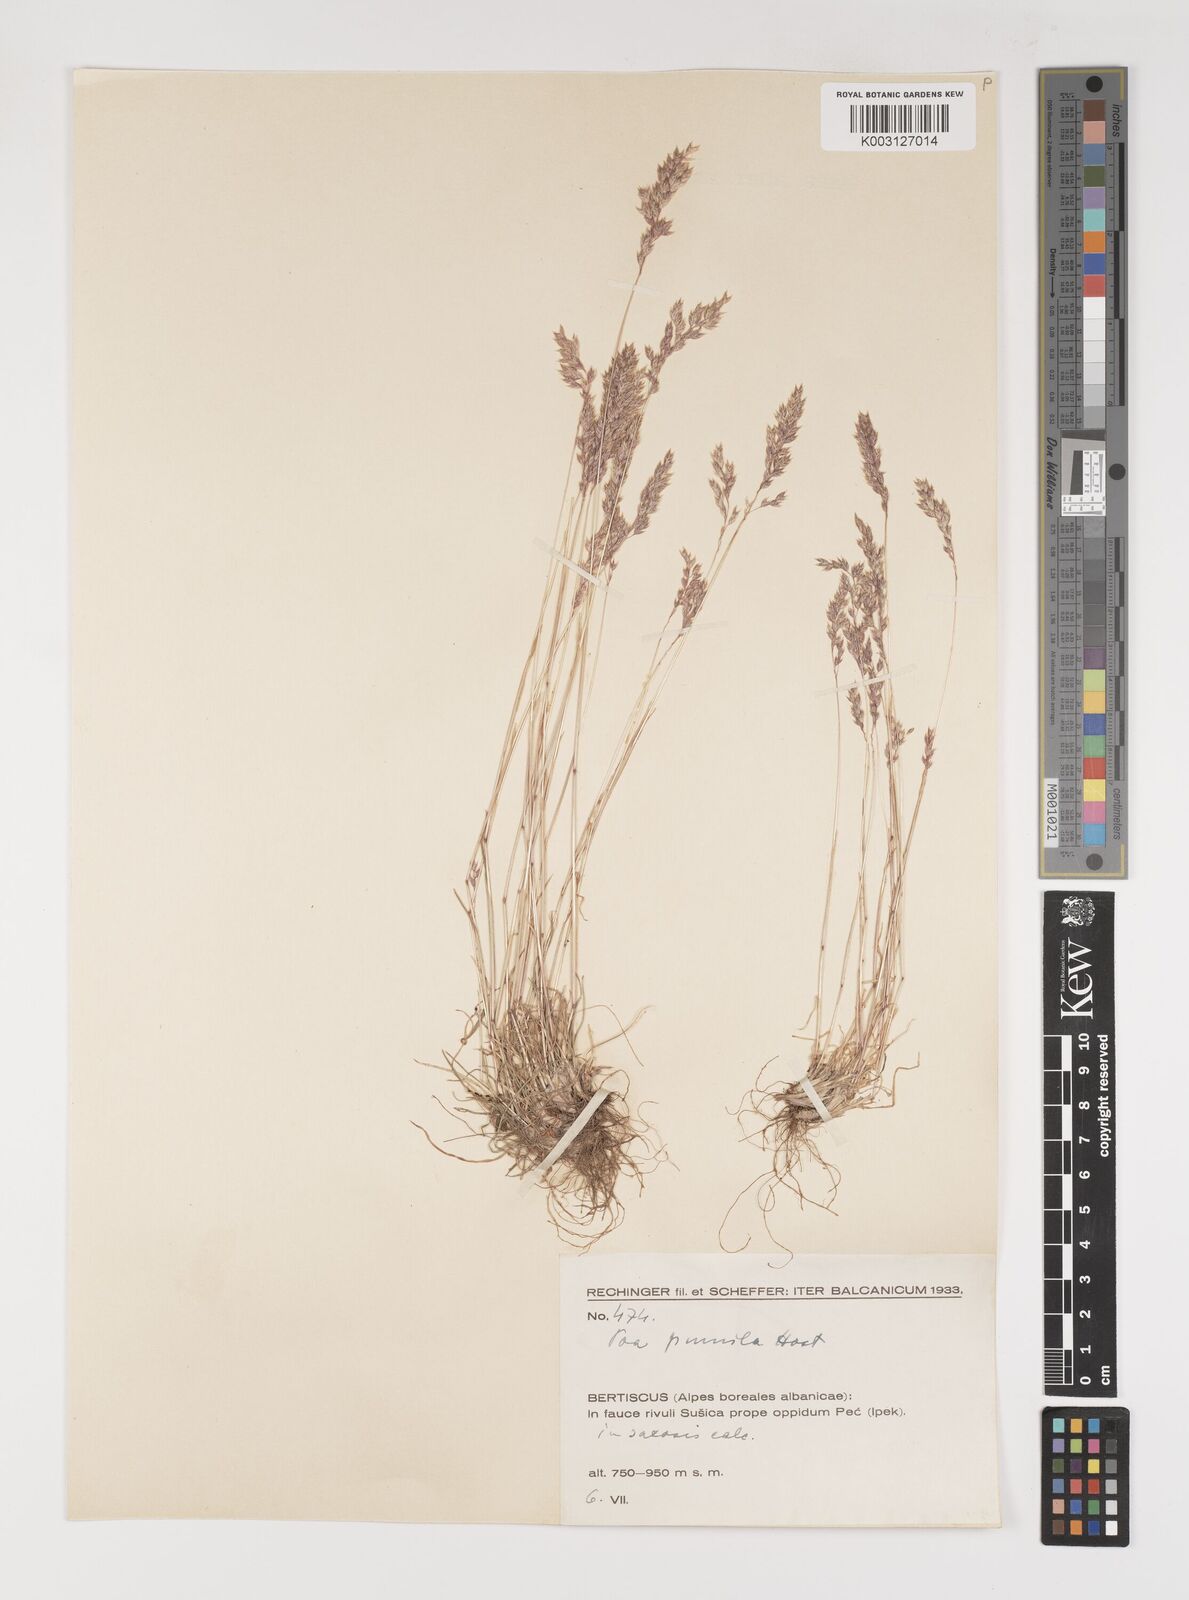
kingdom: Plantae
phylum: Tracheophyta
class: Liliopsida
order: Poales
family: Poaceae
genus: Poa
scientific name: Poa pumila
